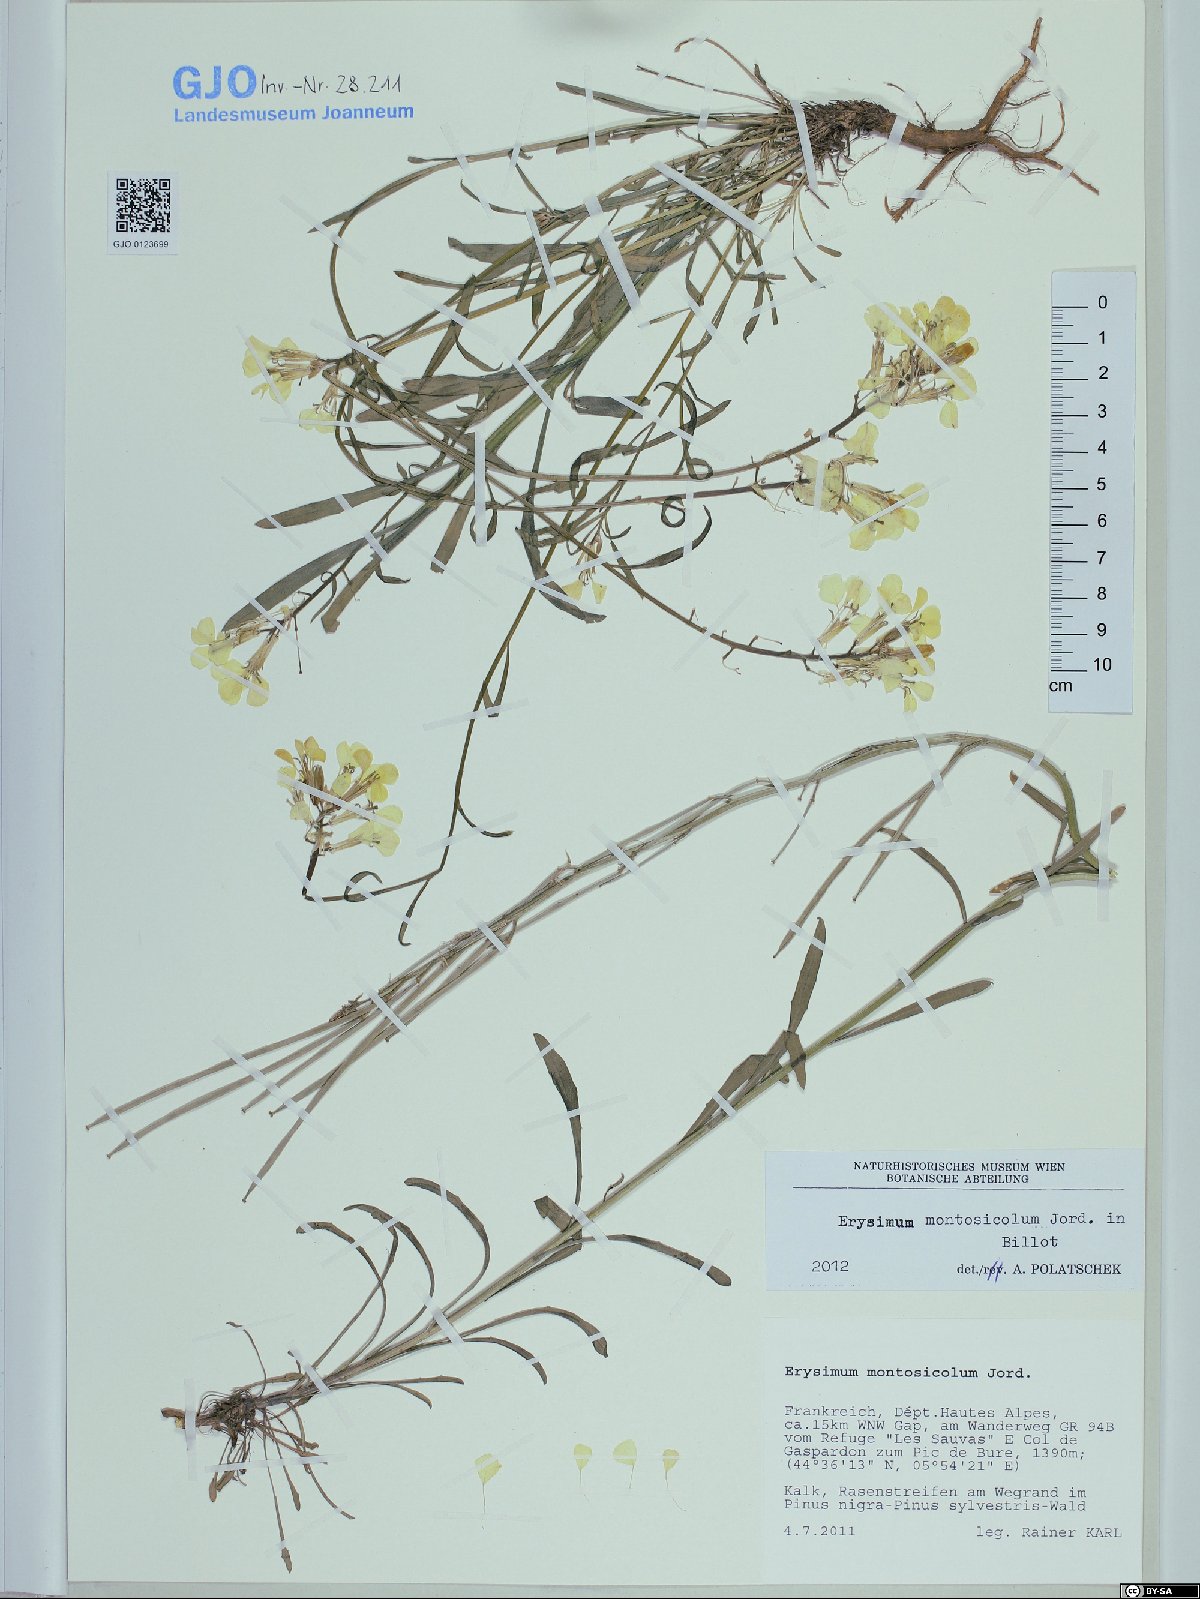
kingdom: Plantae
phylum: Tracheophyta
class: Magnoliopsida
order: Brassicales
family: Brassicaceae
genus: Erysimum
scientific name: Erysimum montosicolum
